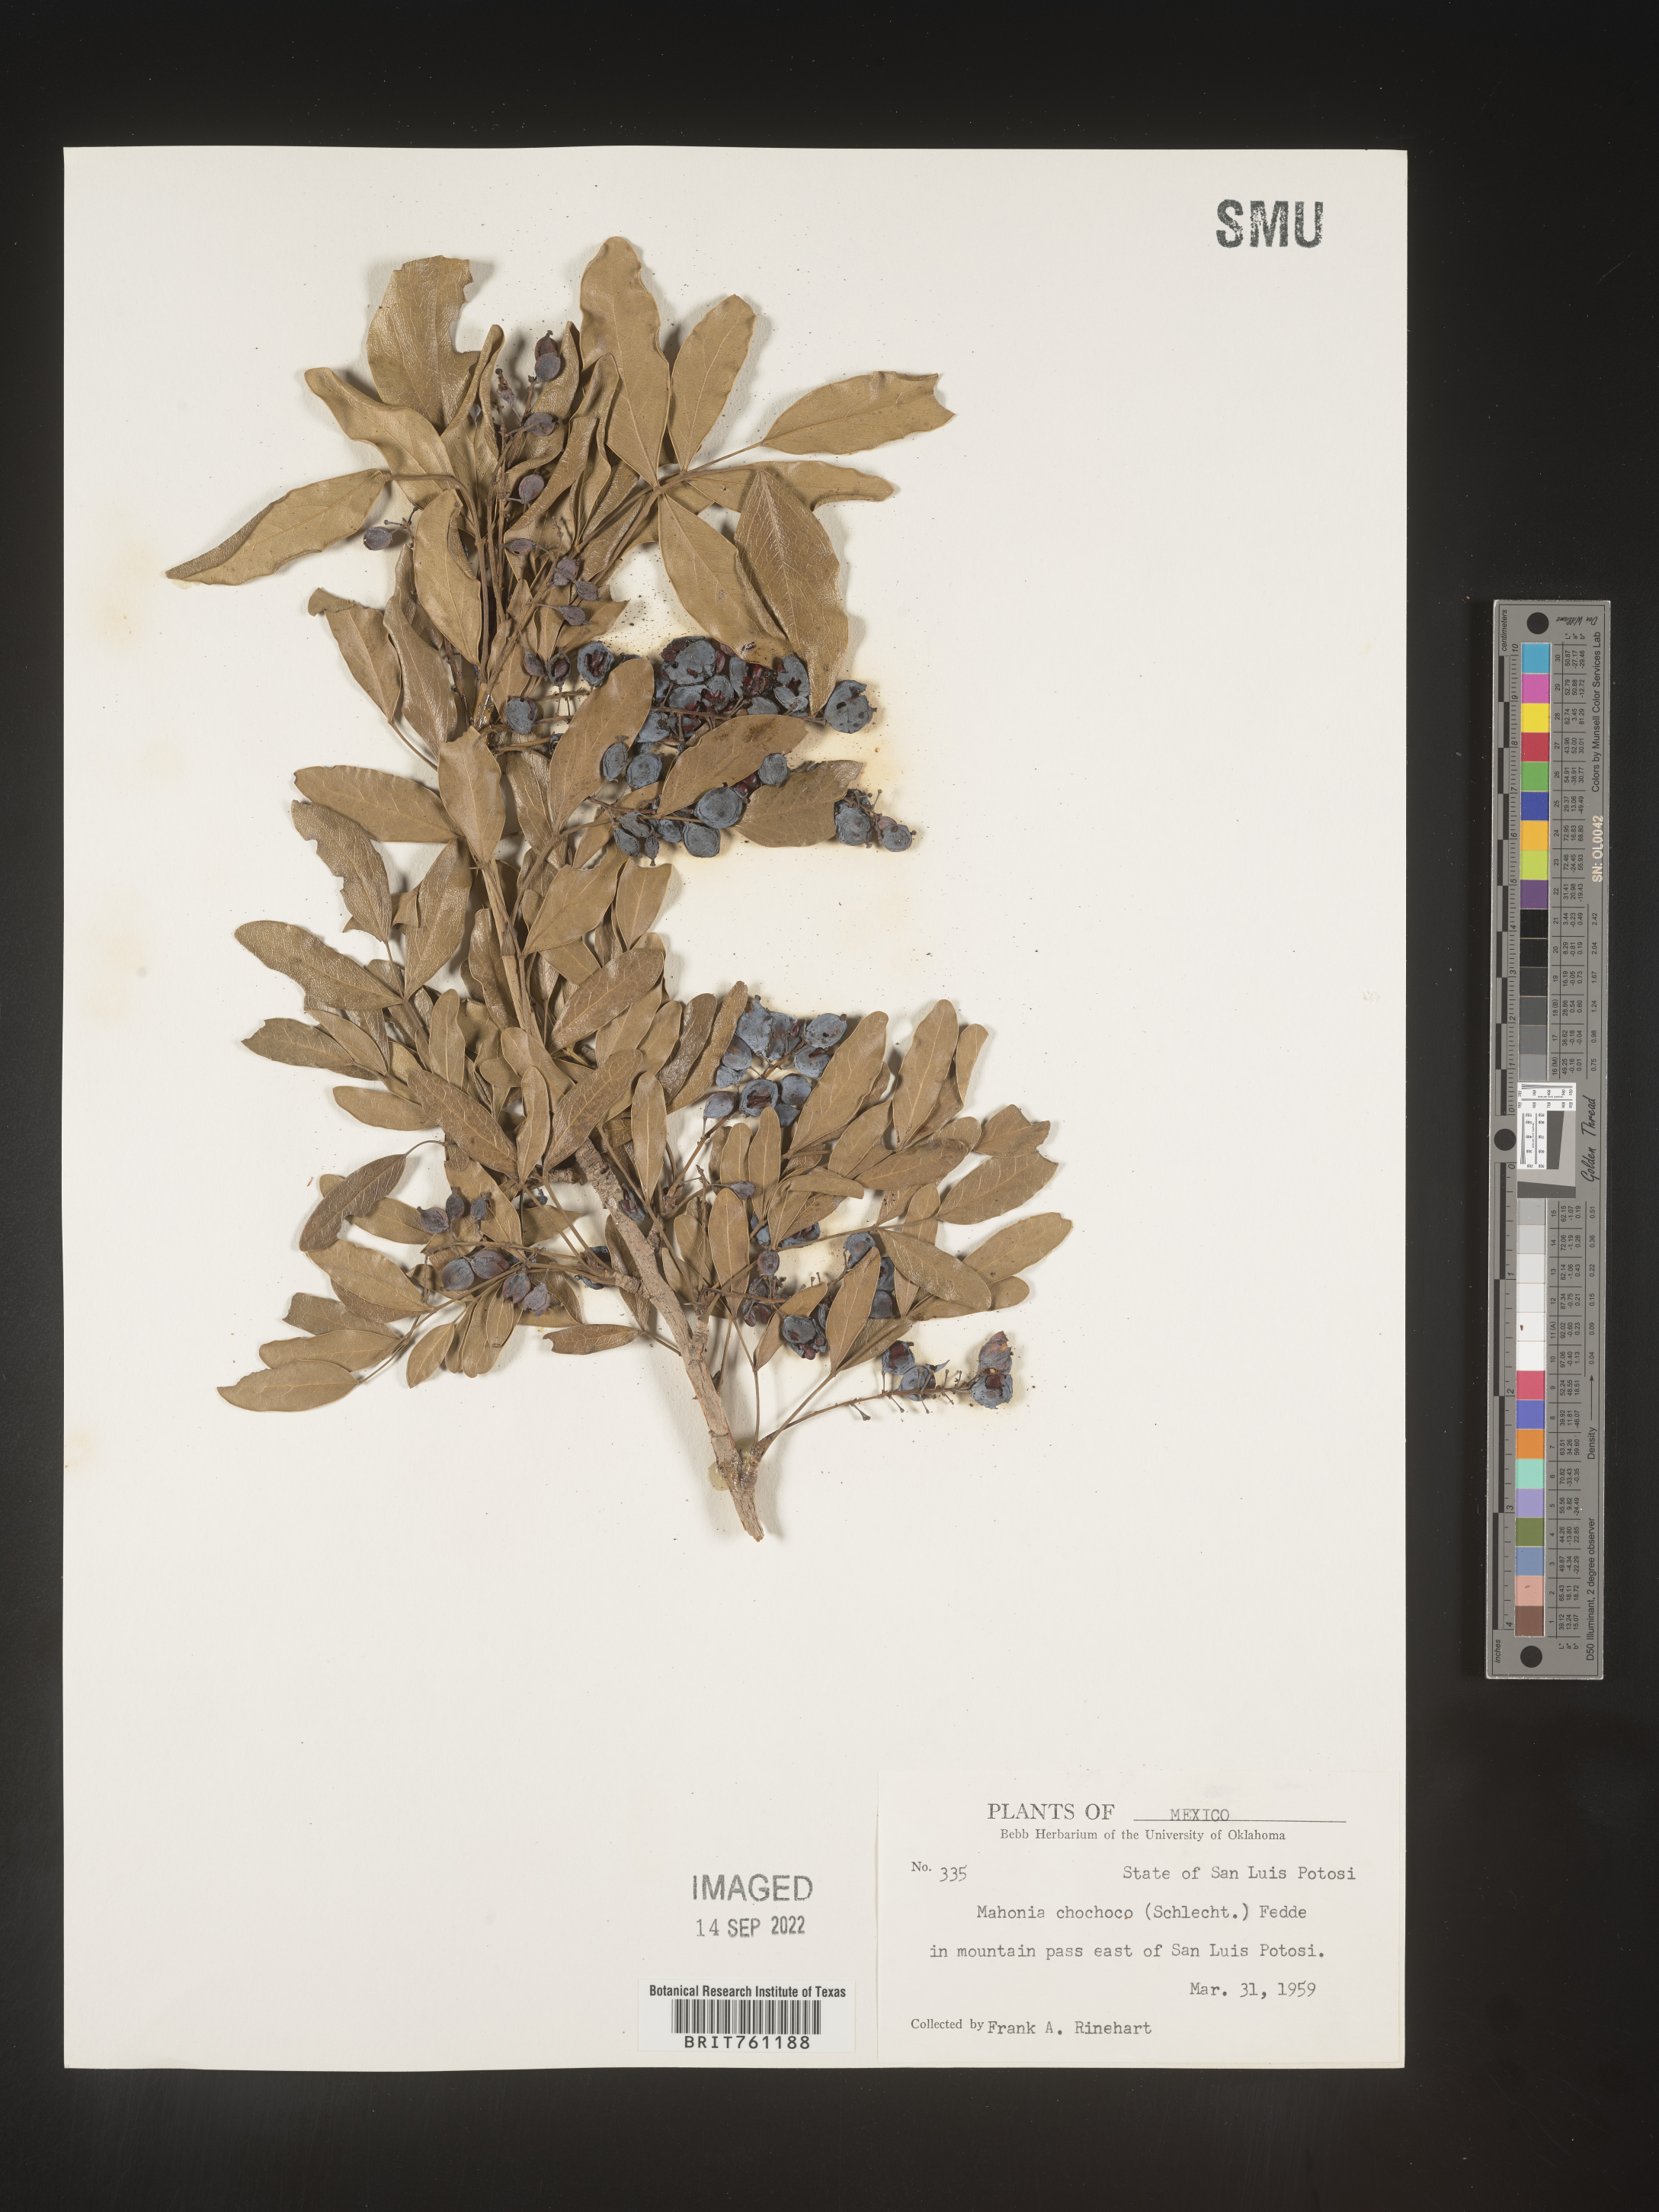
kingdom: Plantae
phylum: Tracheophyta
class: Magnoliopsida
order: Ranunculales
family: Berberidaceae
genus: Mahonia
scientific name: Mahonia
